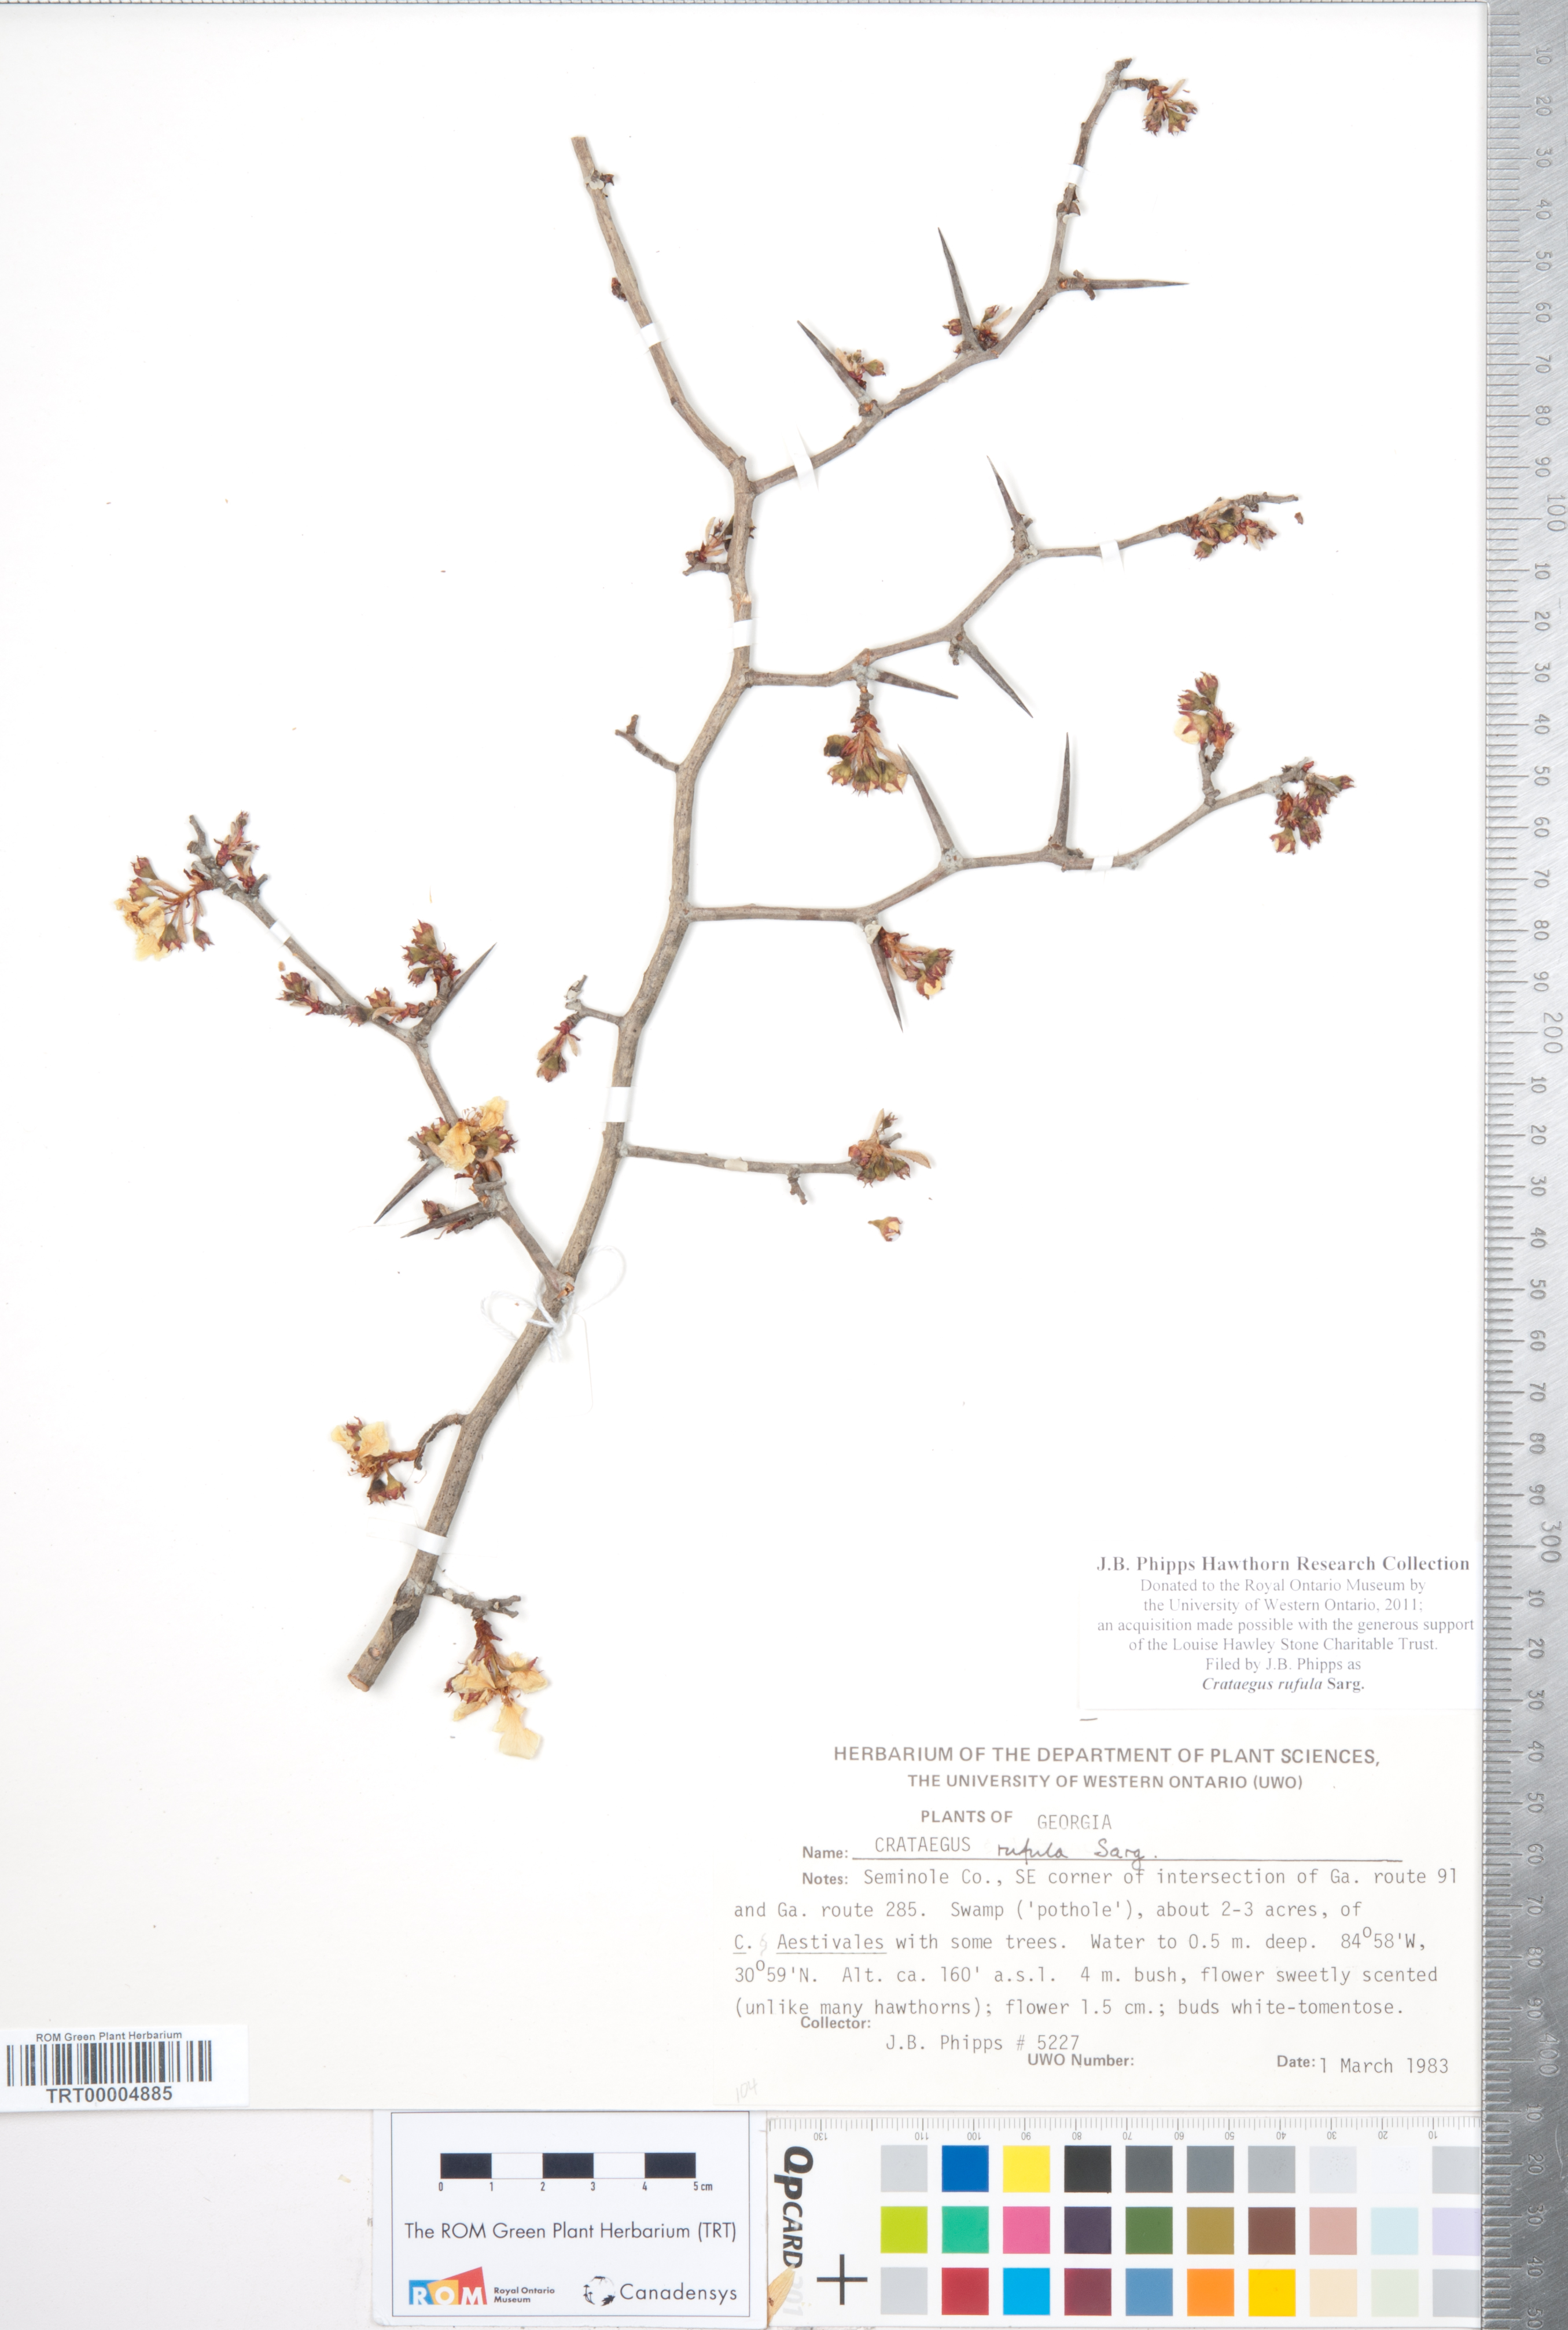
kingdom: Plantae
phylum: Tracheophyta
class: Magnoliopsida
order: Rosales
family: Rosaceae
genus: Crataegus
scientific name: Crataegus rufula
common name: Rufous mayhaw
